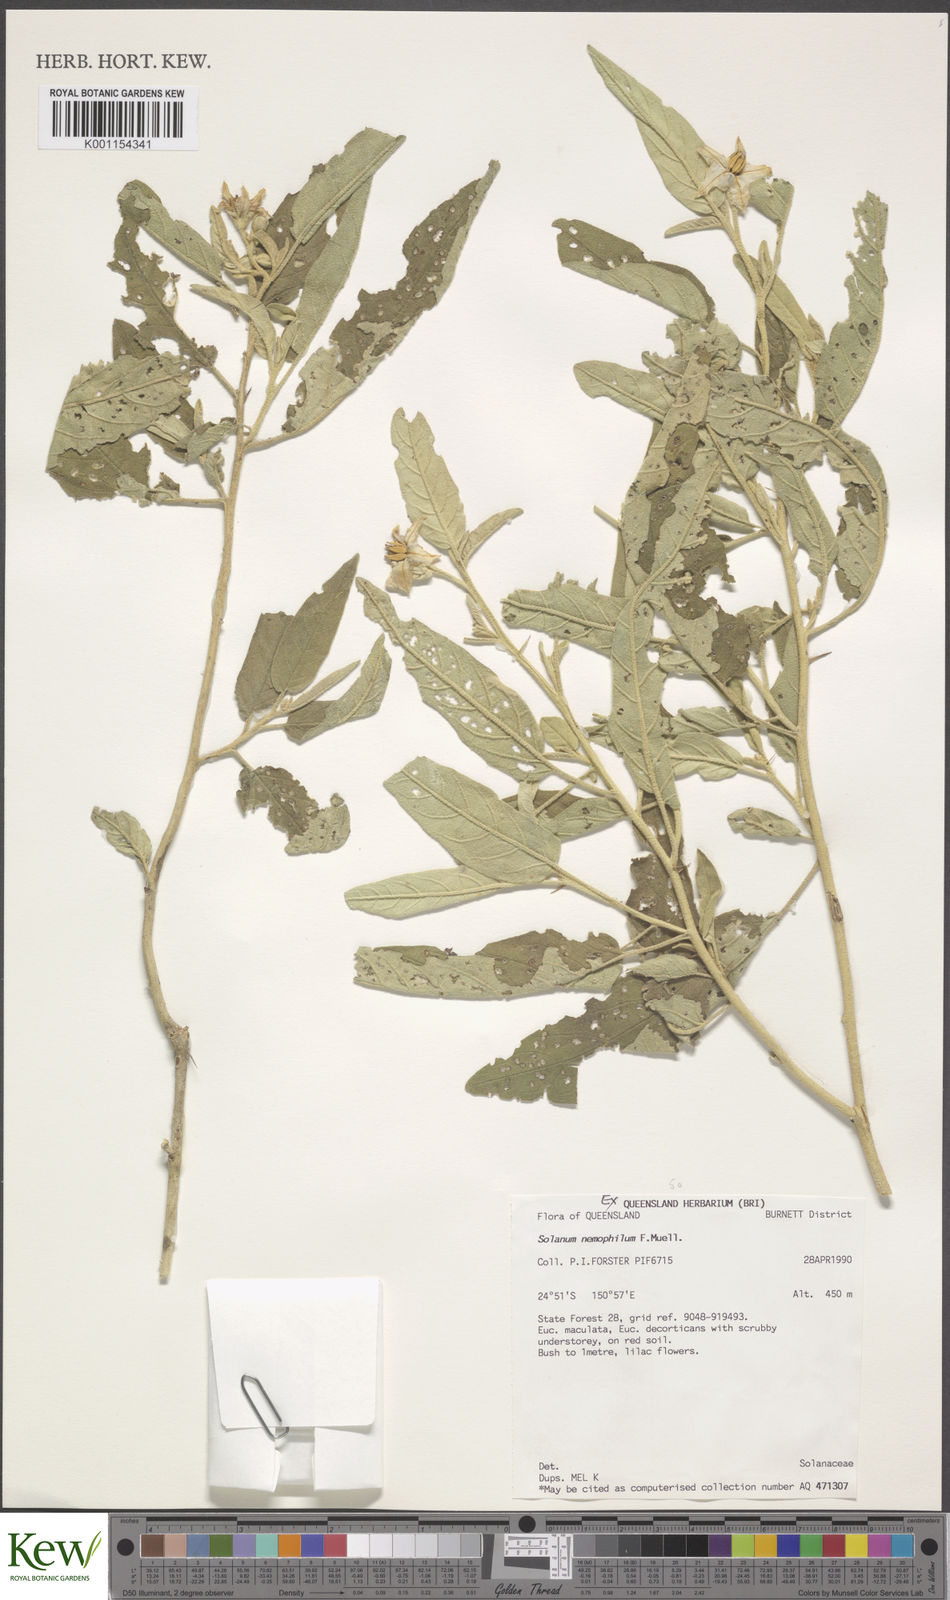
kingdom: Plantae
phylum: Tracheophyta
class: Magnoliopsida
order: Solanales
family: Solanaceae
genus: Solanum
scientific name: Solanum nemophilum
